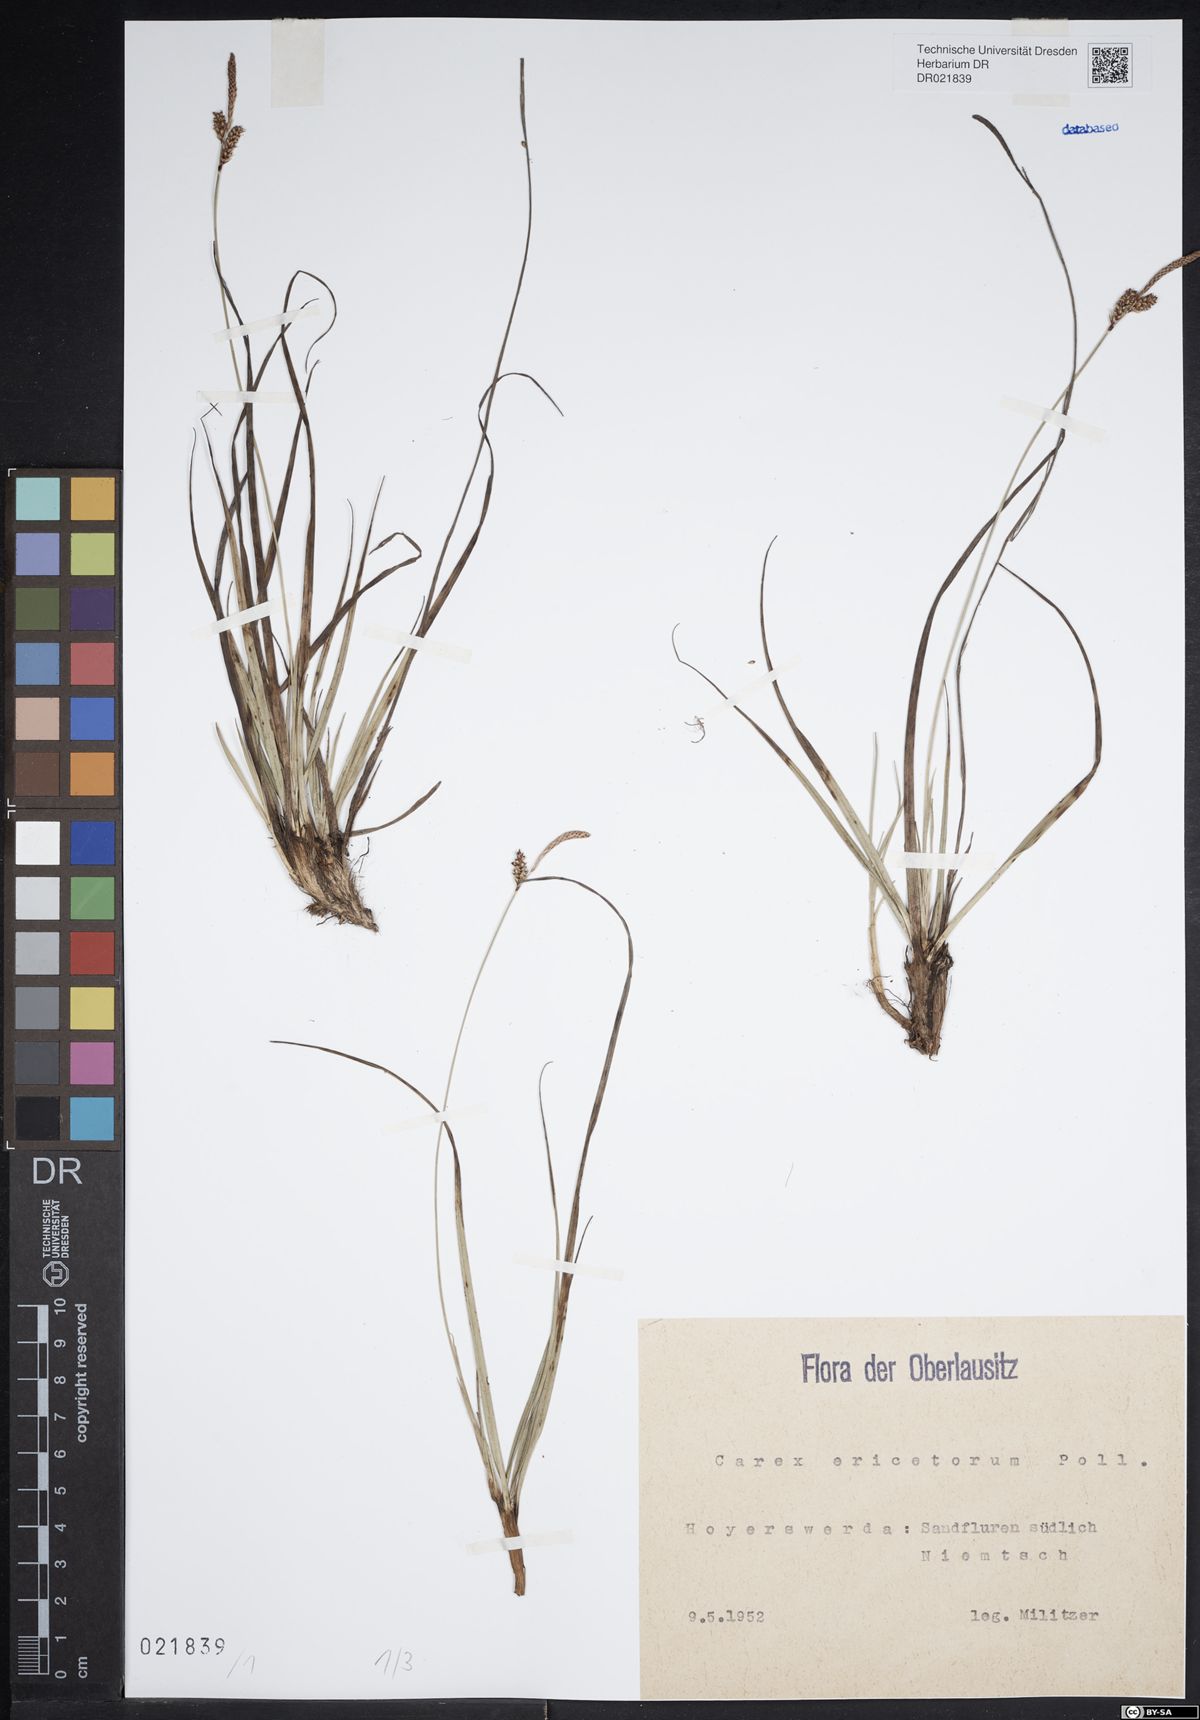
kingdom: Plantae
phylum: Tracheophyta
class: Liliopsida
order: Poales
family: Cyperaceae
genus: Carex
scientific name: Carex ericetorum
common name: Rare spring-sedge
